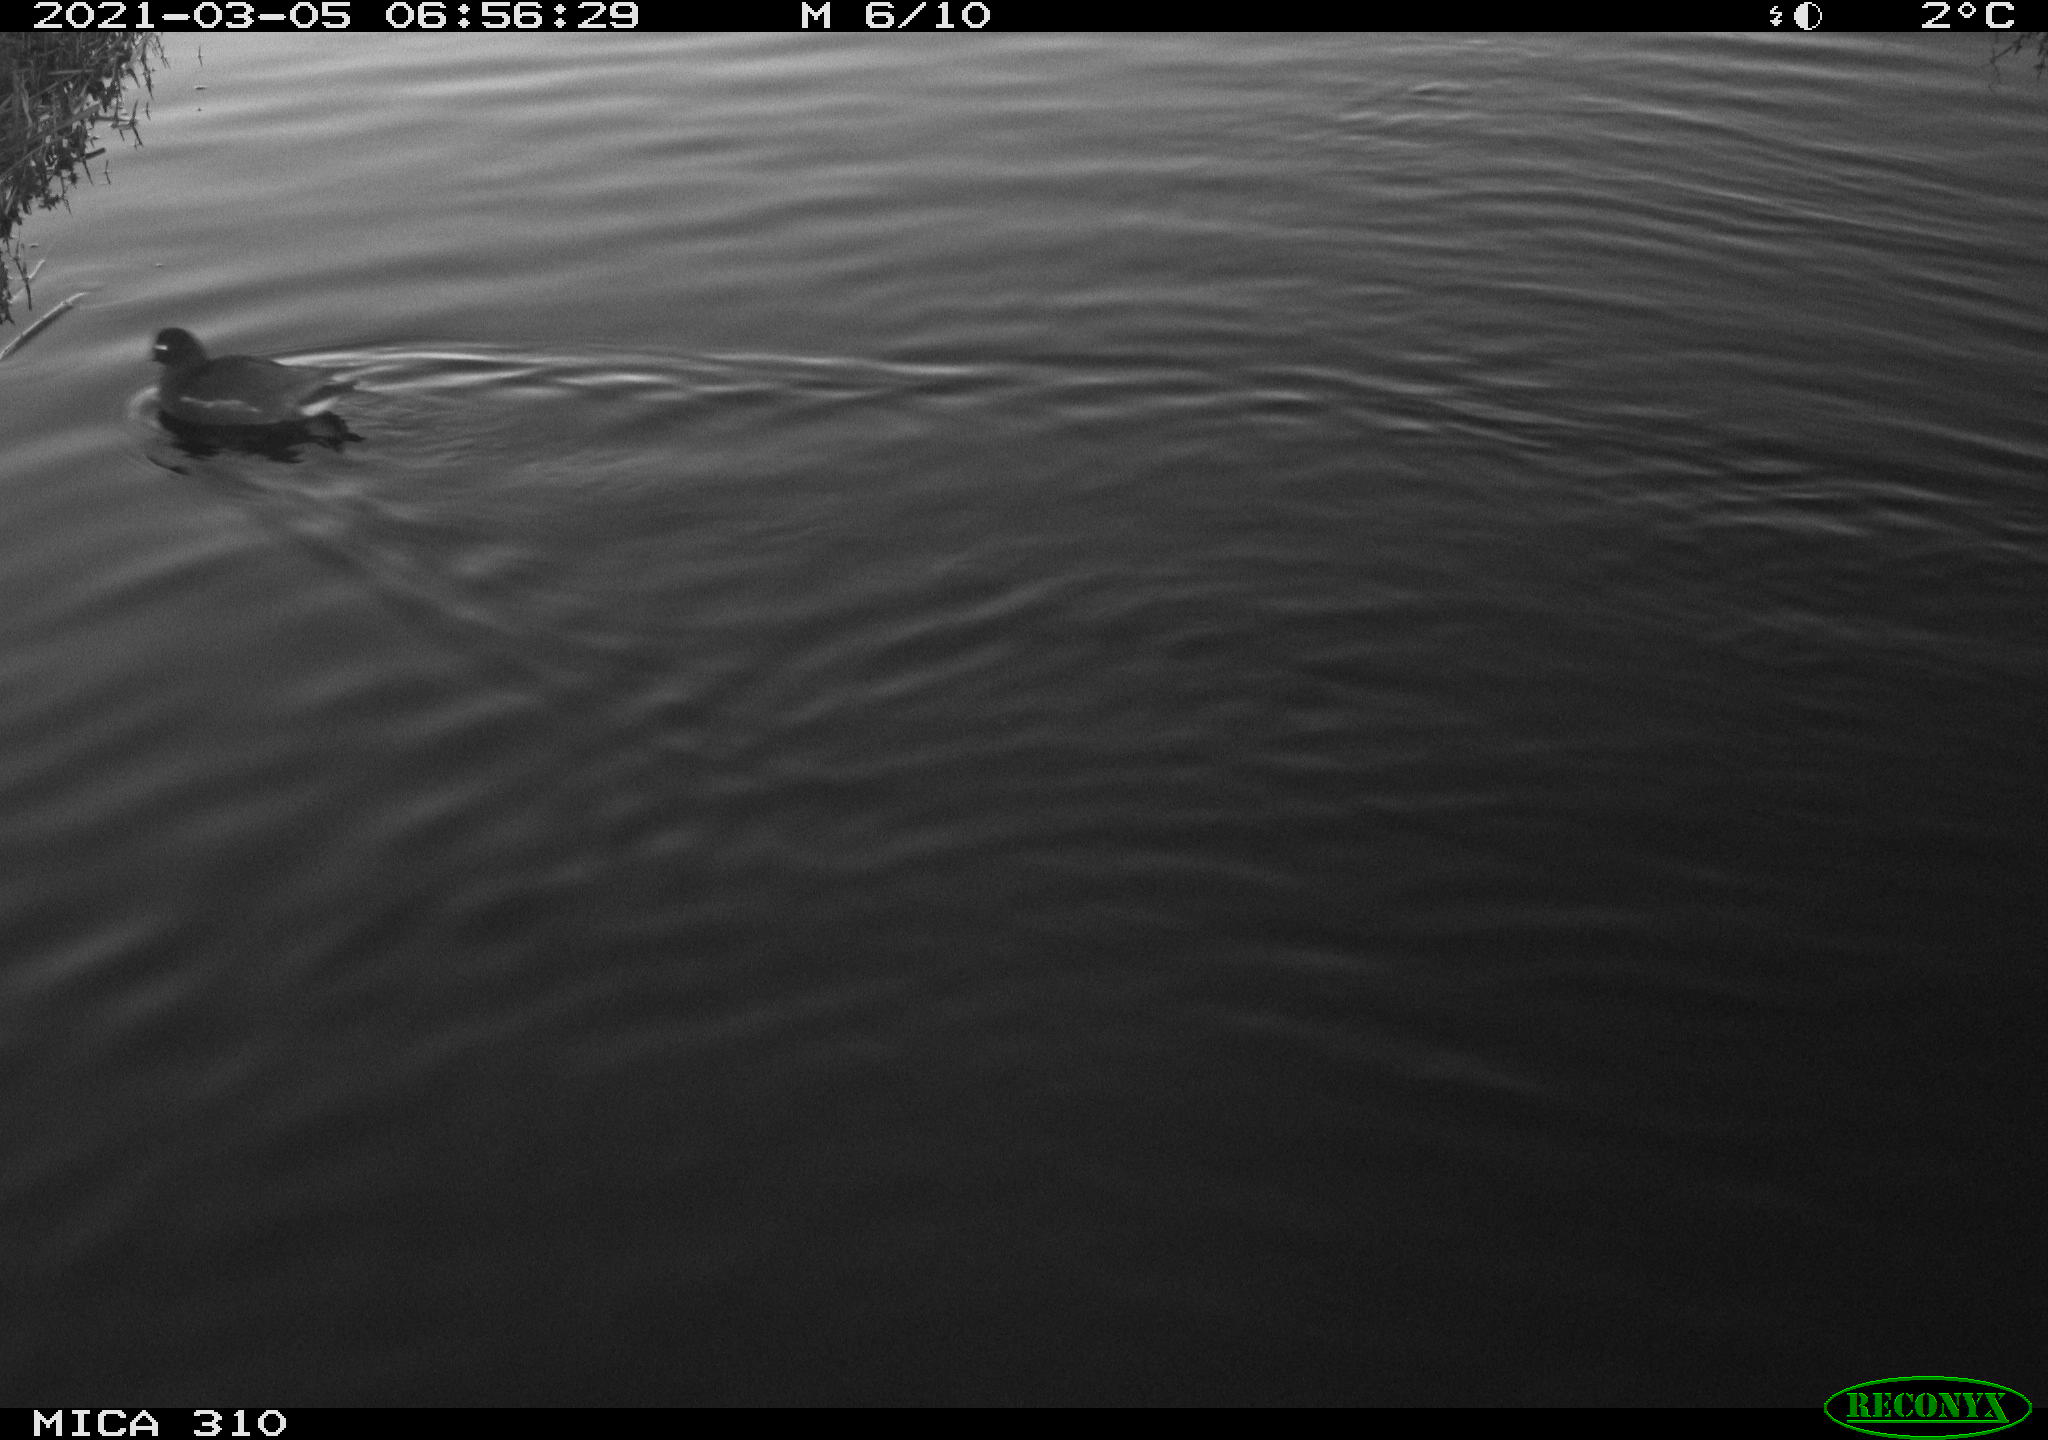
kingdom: Animalia
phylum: Chordata
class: Aves
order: Gruiformes
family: Rallidae
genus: Gallinula
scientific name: Gallinula chloropus
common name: Common moorhen
